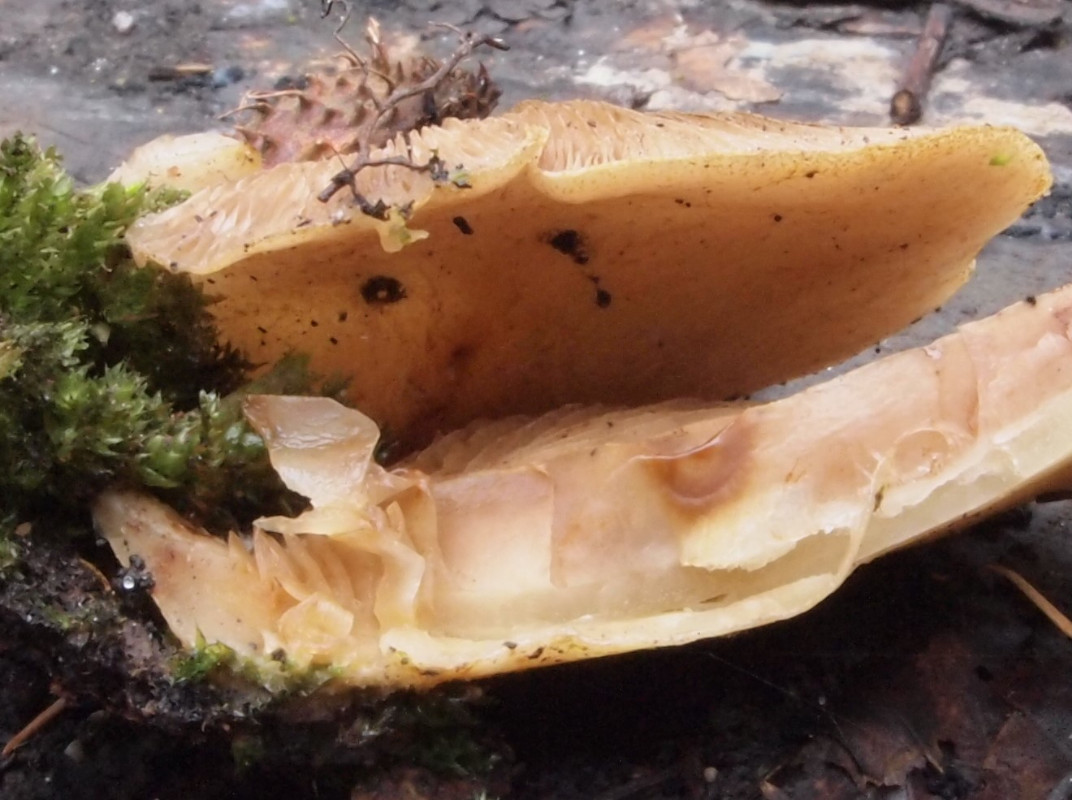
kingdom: Fungi
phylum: Basidiomycota
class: Agaricomycetes
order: Agaricales
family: Crepidotaceae
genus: Crepidotus
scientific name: Crepidotus mollis
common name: blød muslingesvamp
